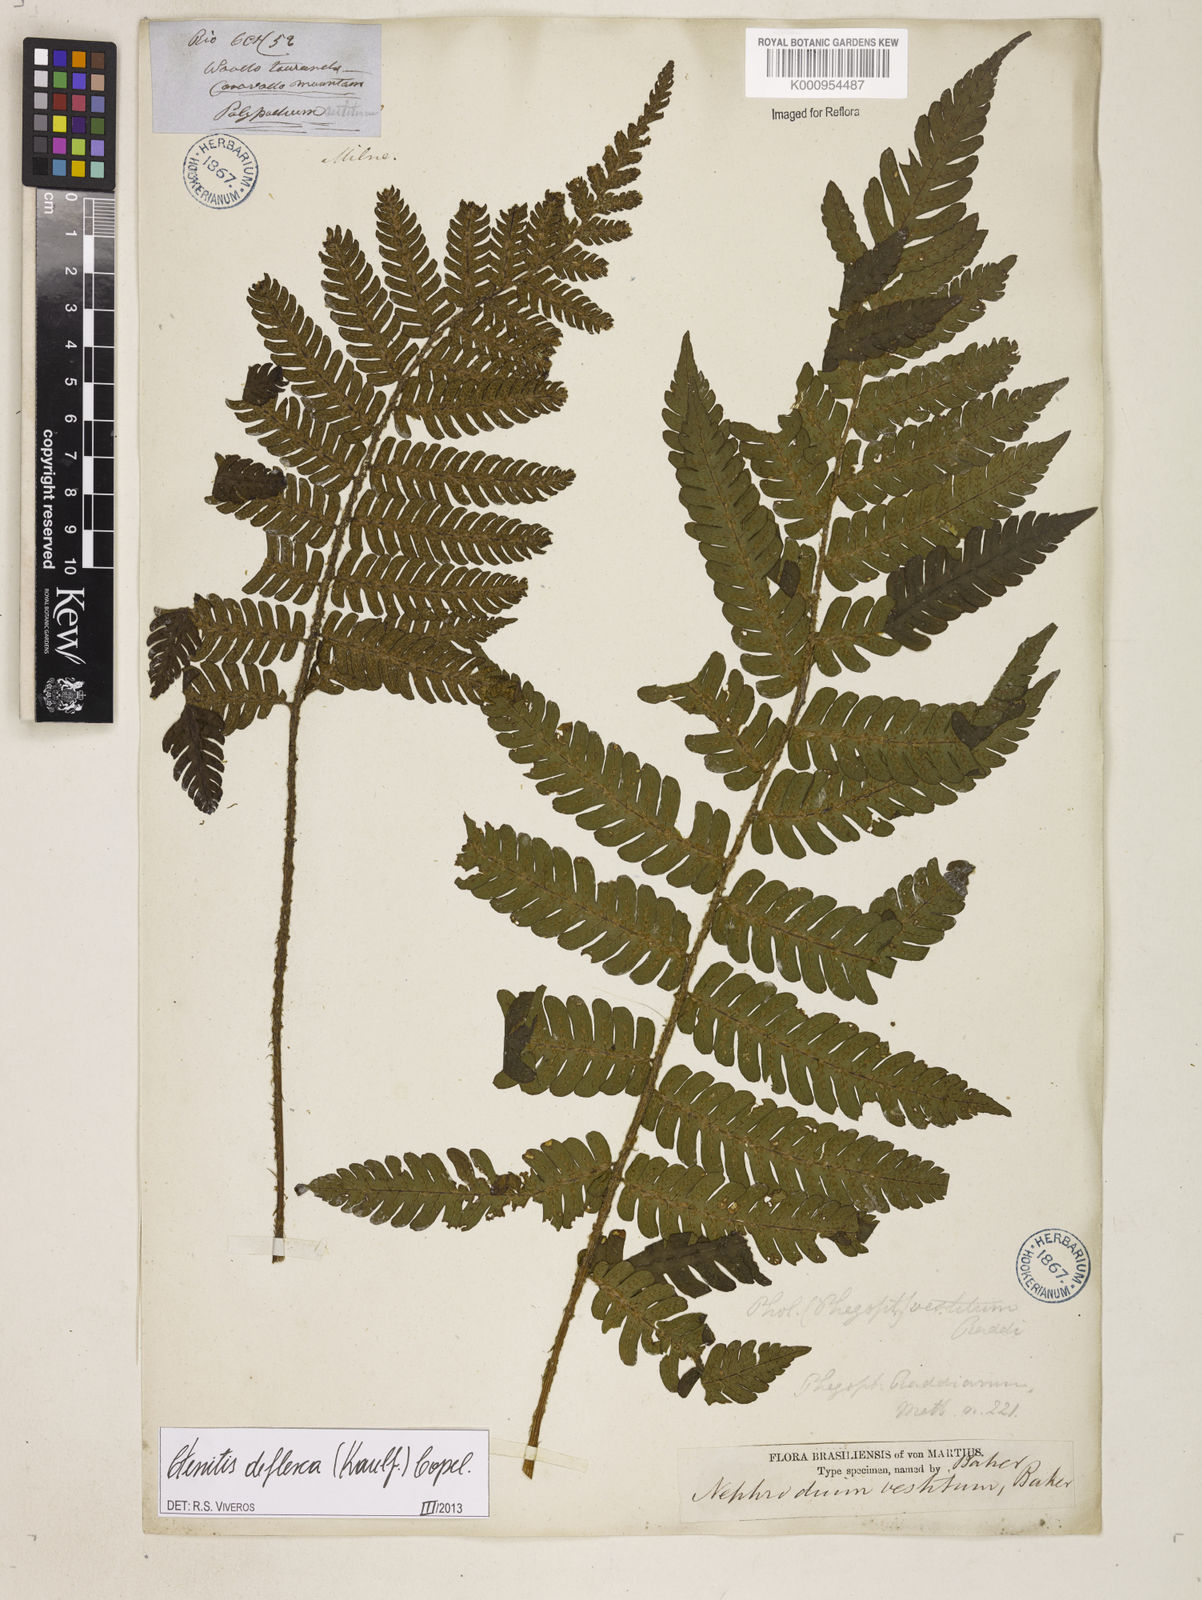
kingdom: Plantae
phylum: Tracheophyta
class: Polypodiopsida
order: Polypodiales
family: Dryopteridaceae
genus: Ctenitis
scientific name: Ctenitis deflexa
